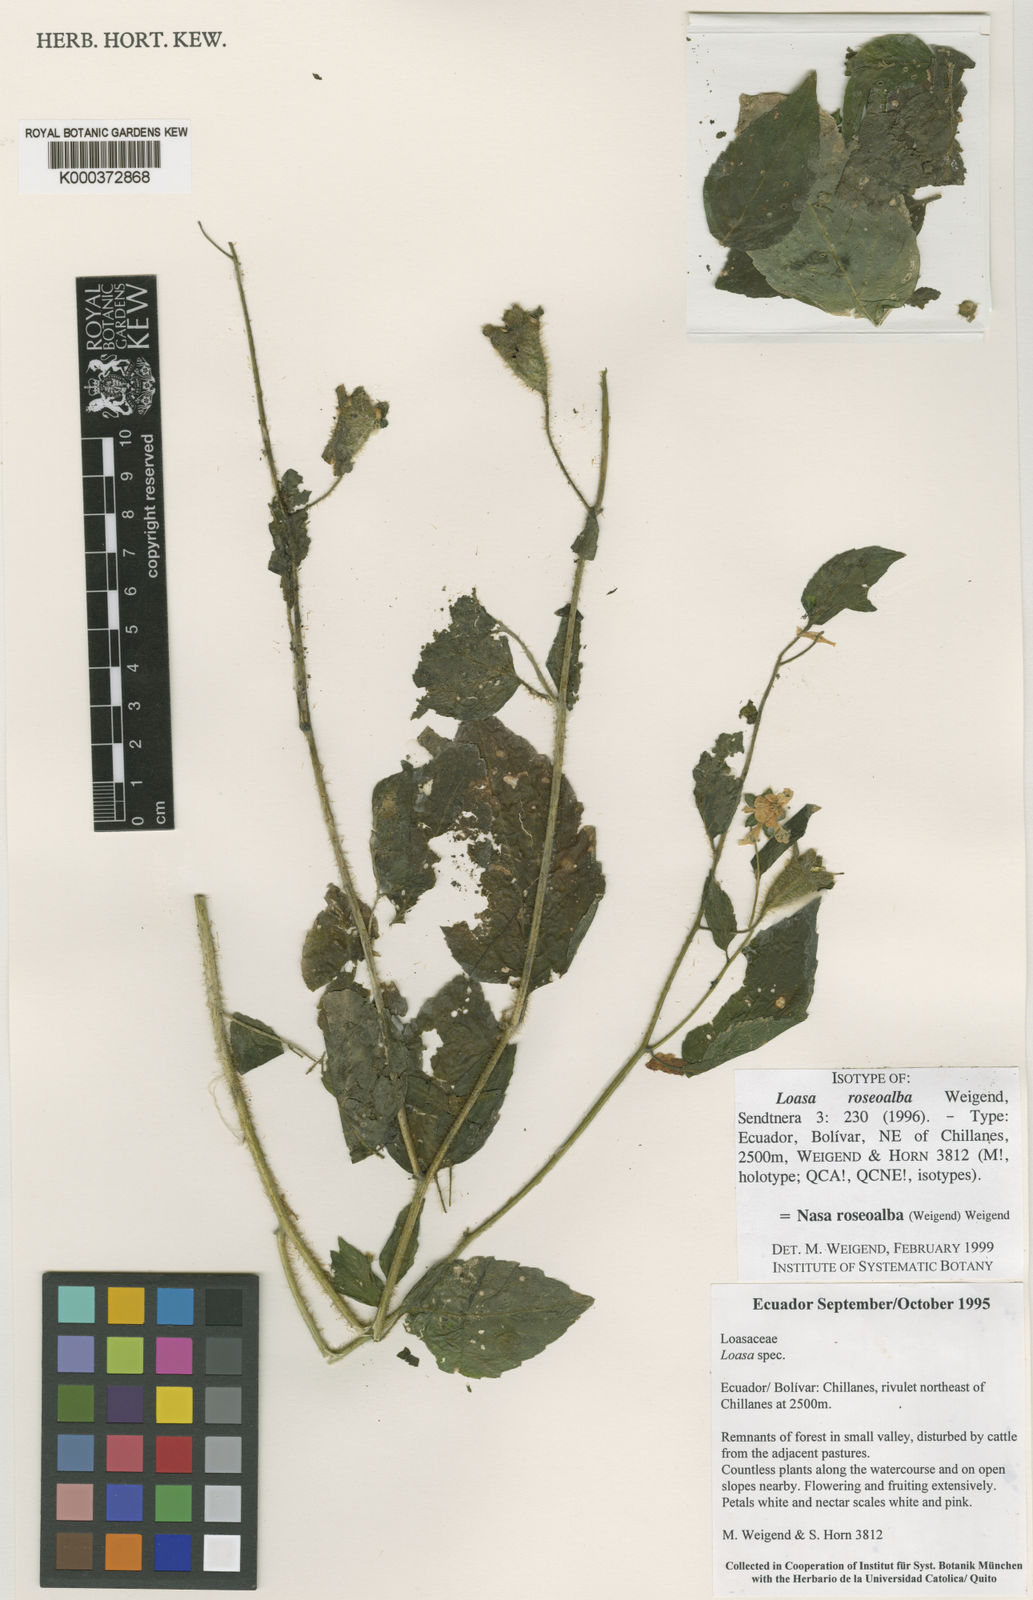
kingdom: Plantae
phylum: Tracheophyta
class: Magnoliopsida
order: Cornales
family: Loasaceae
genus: Nasa
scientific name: Nasa
